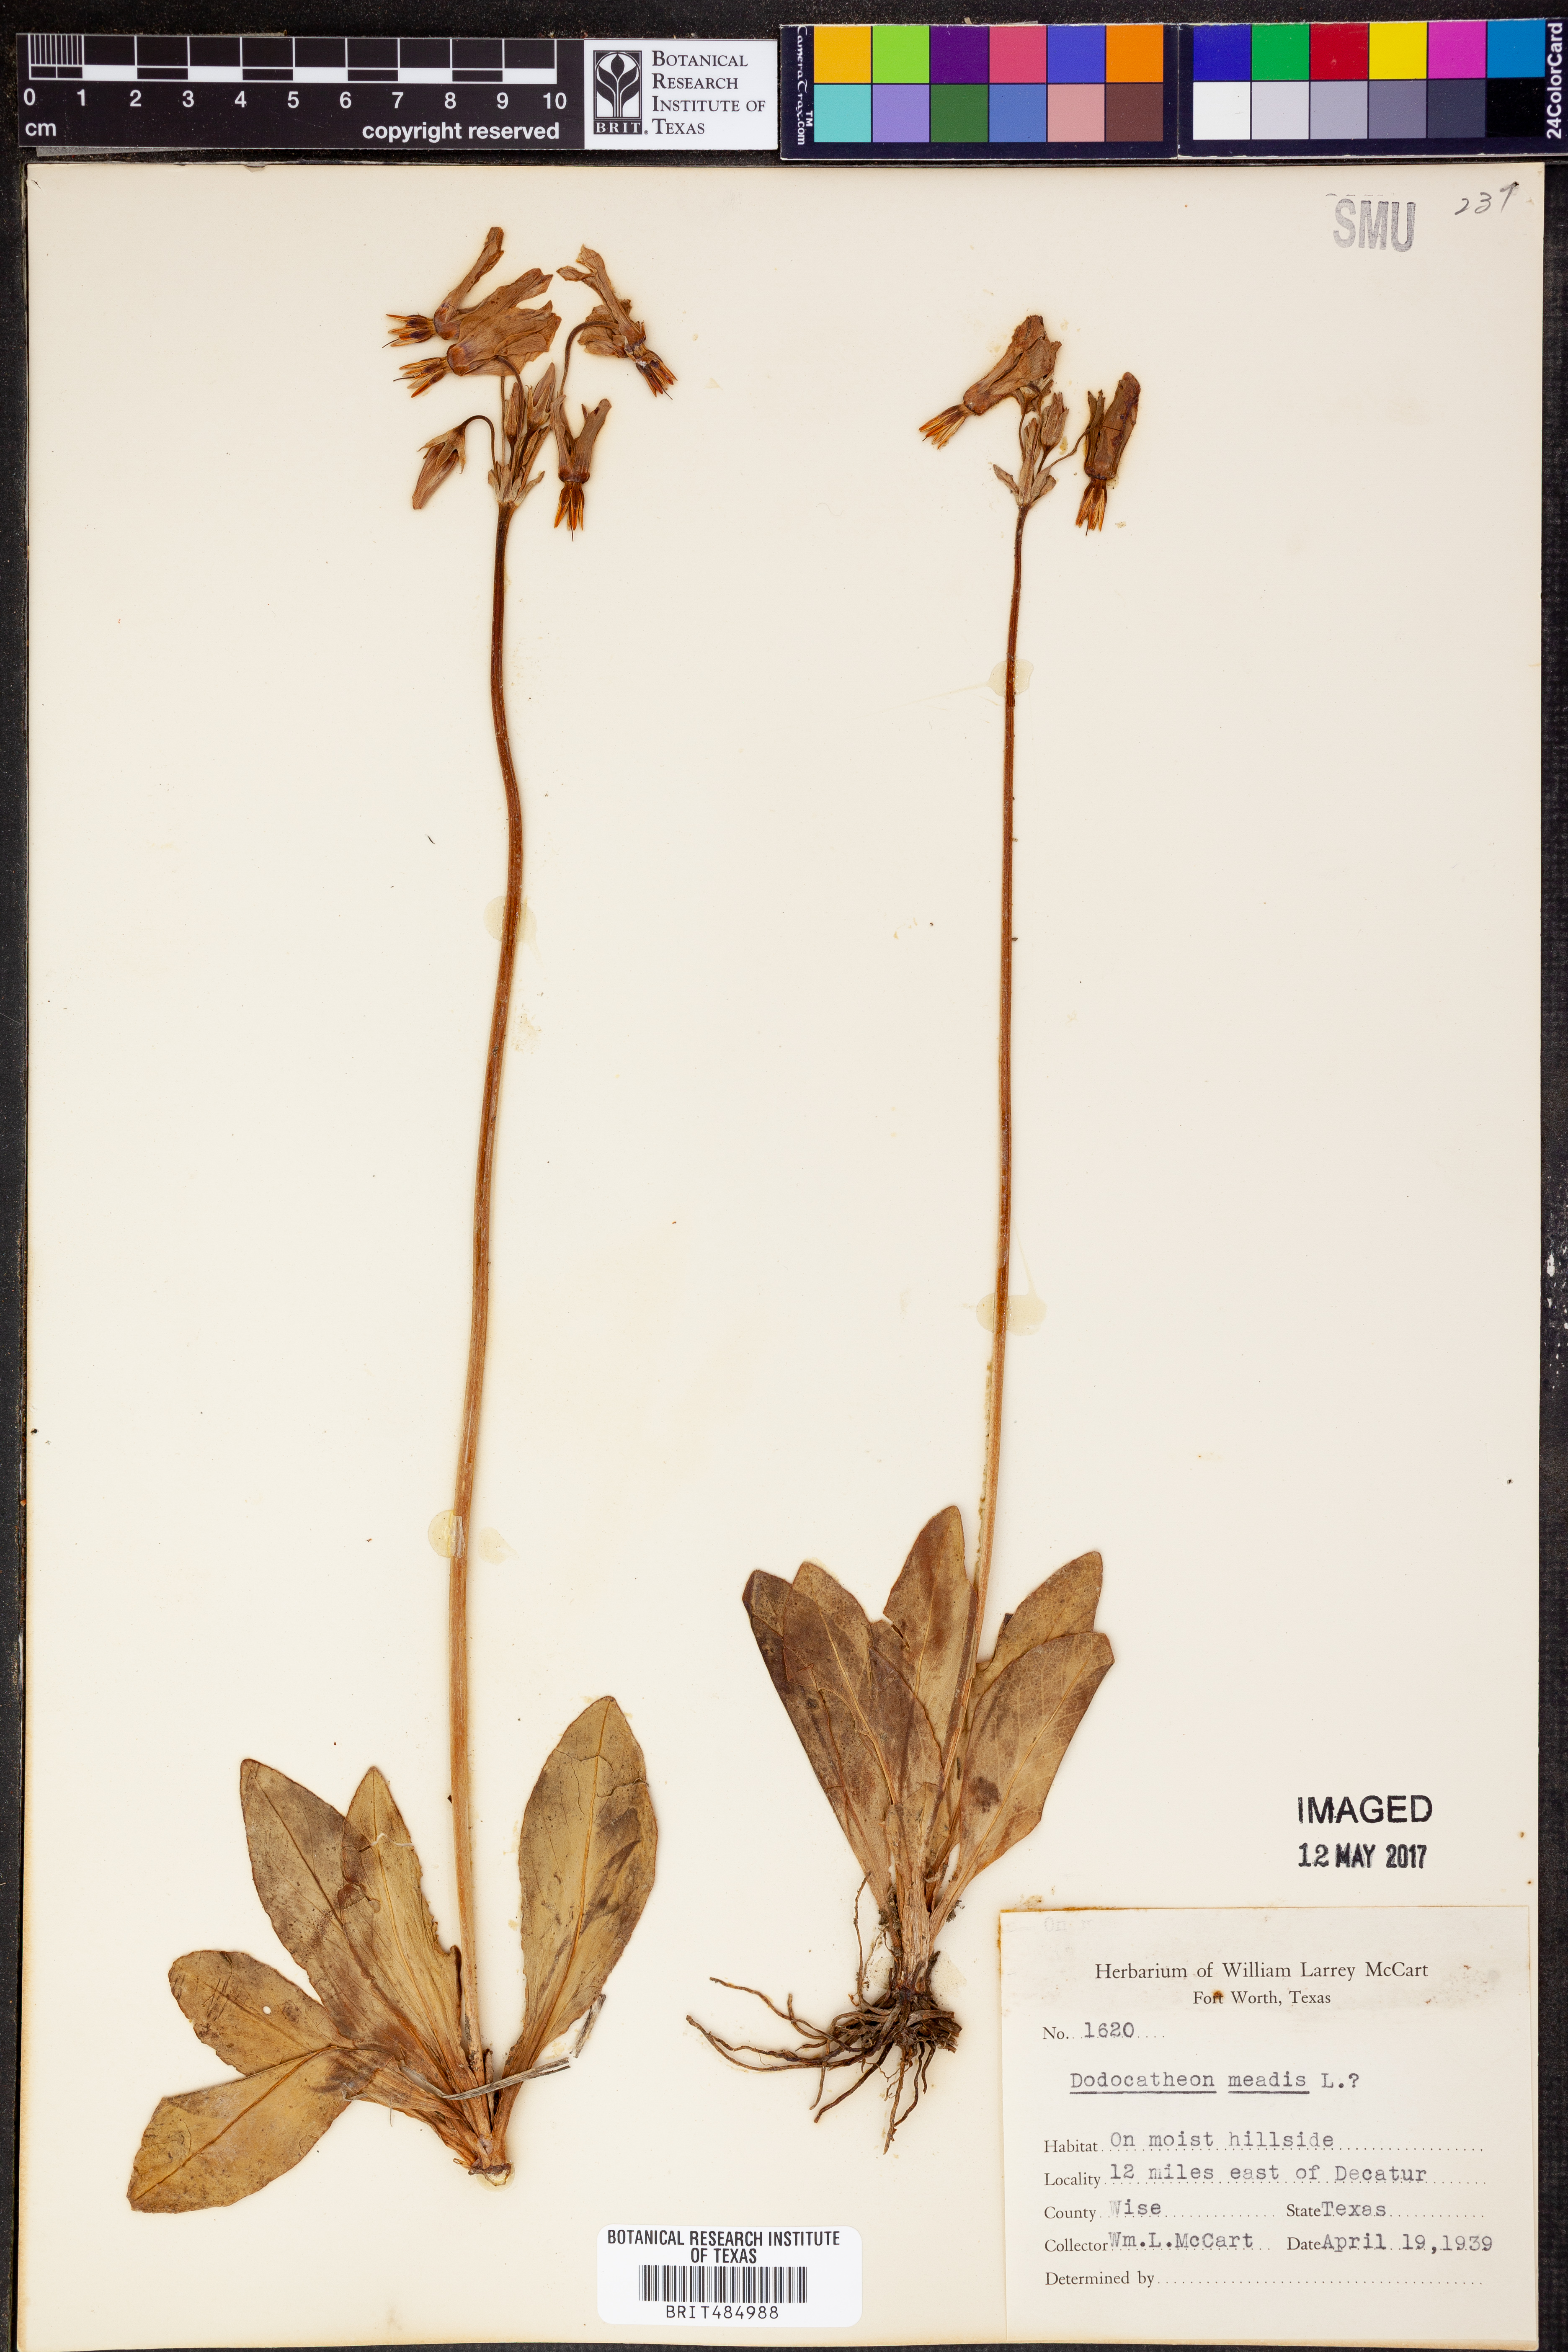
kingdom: Plantae
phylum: Tracheophyta
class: Magnoliopsida
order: Ericales
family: Primulaceae
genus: Dodecatheon
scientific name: Dodecatheon meadia
